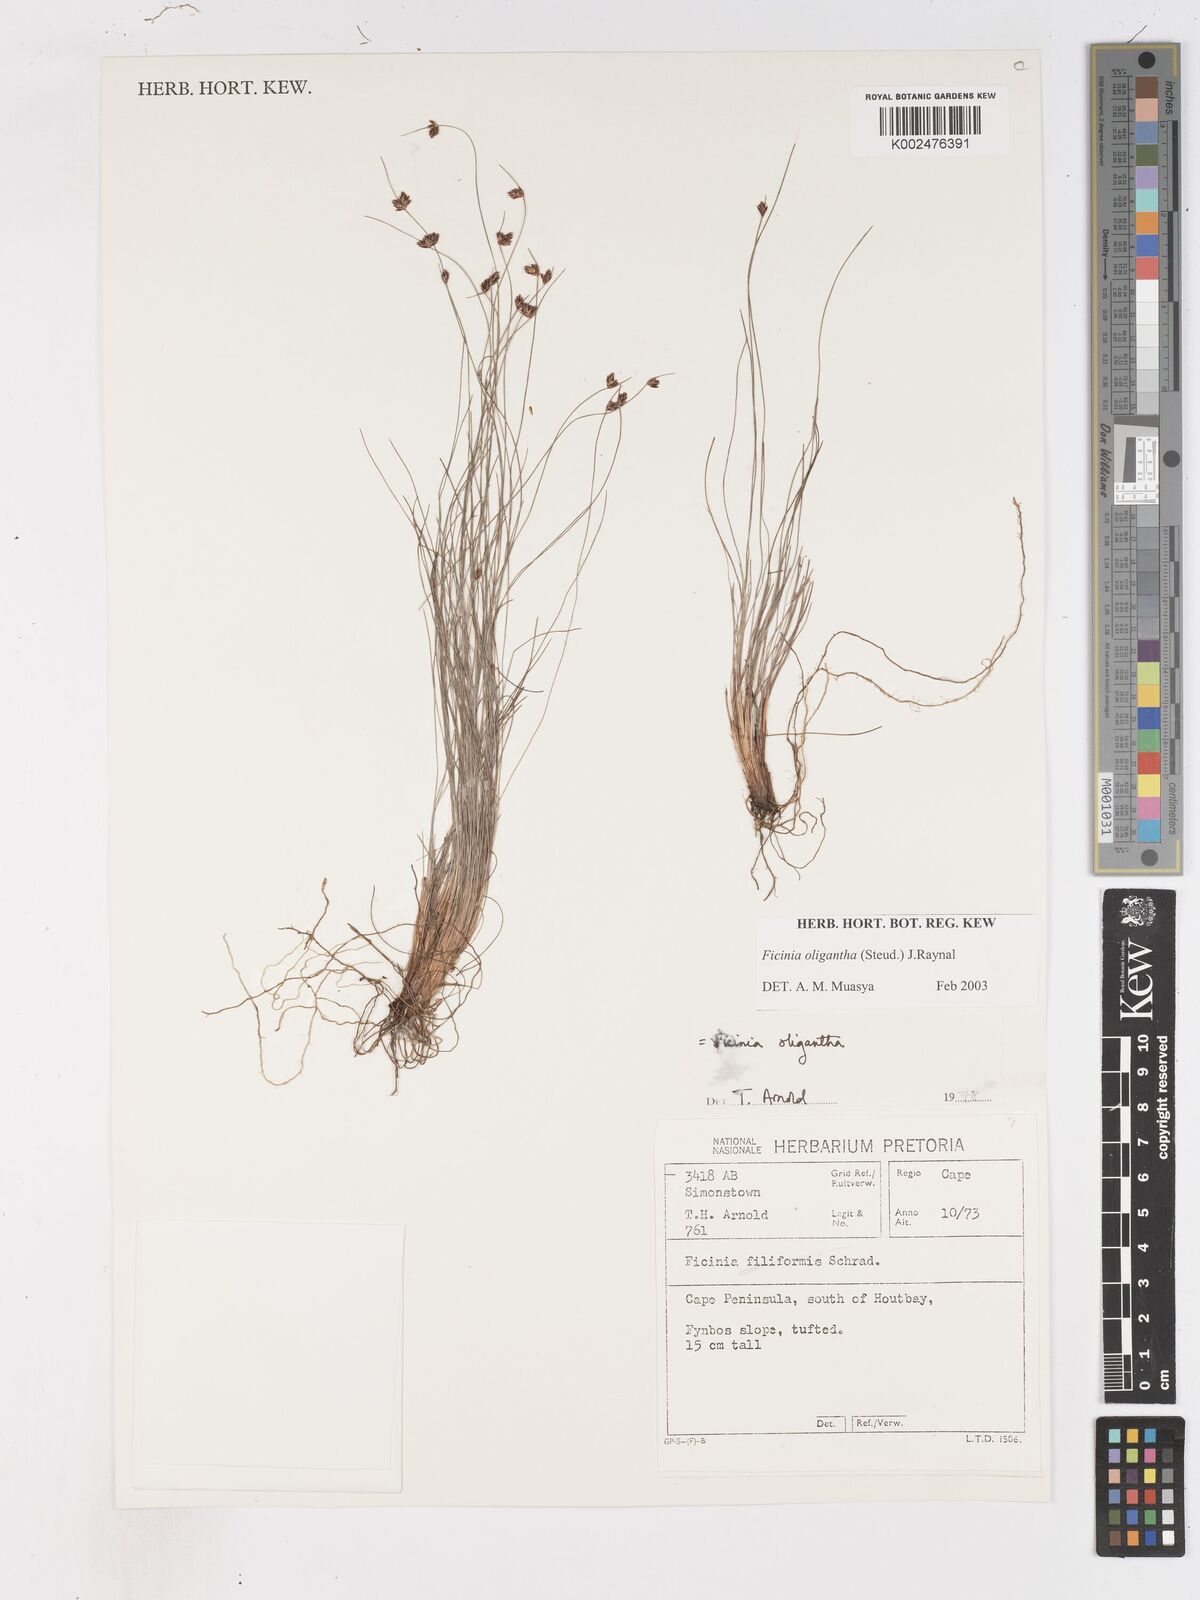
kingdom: Plantae
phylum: Tracheophyta
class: Liliopsida
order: Poales
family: Cyperaceae
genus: Ficinia
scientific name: Ficinia oligantha
